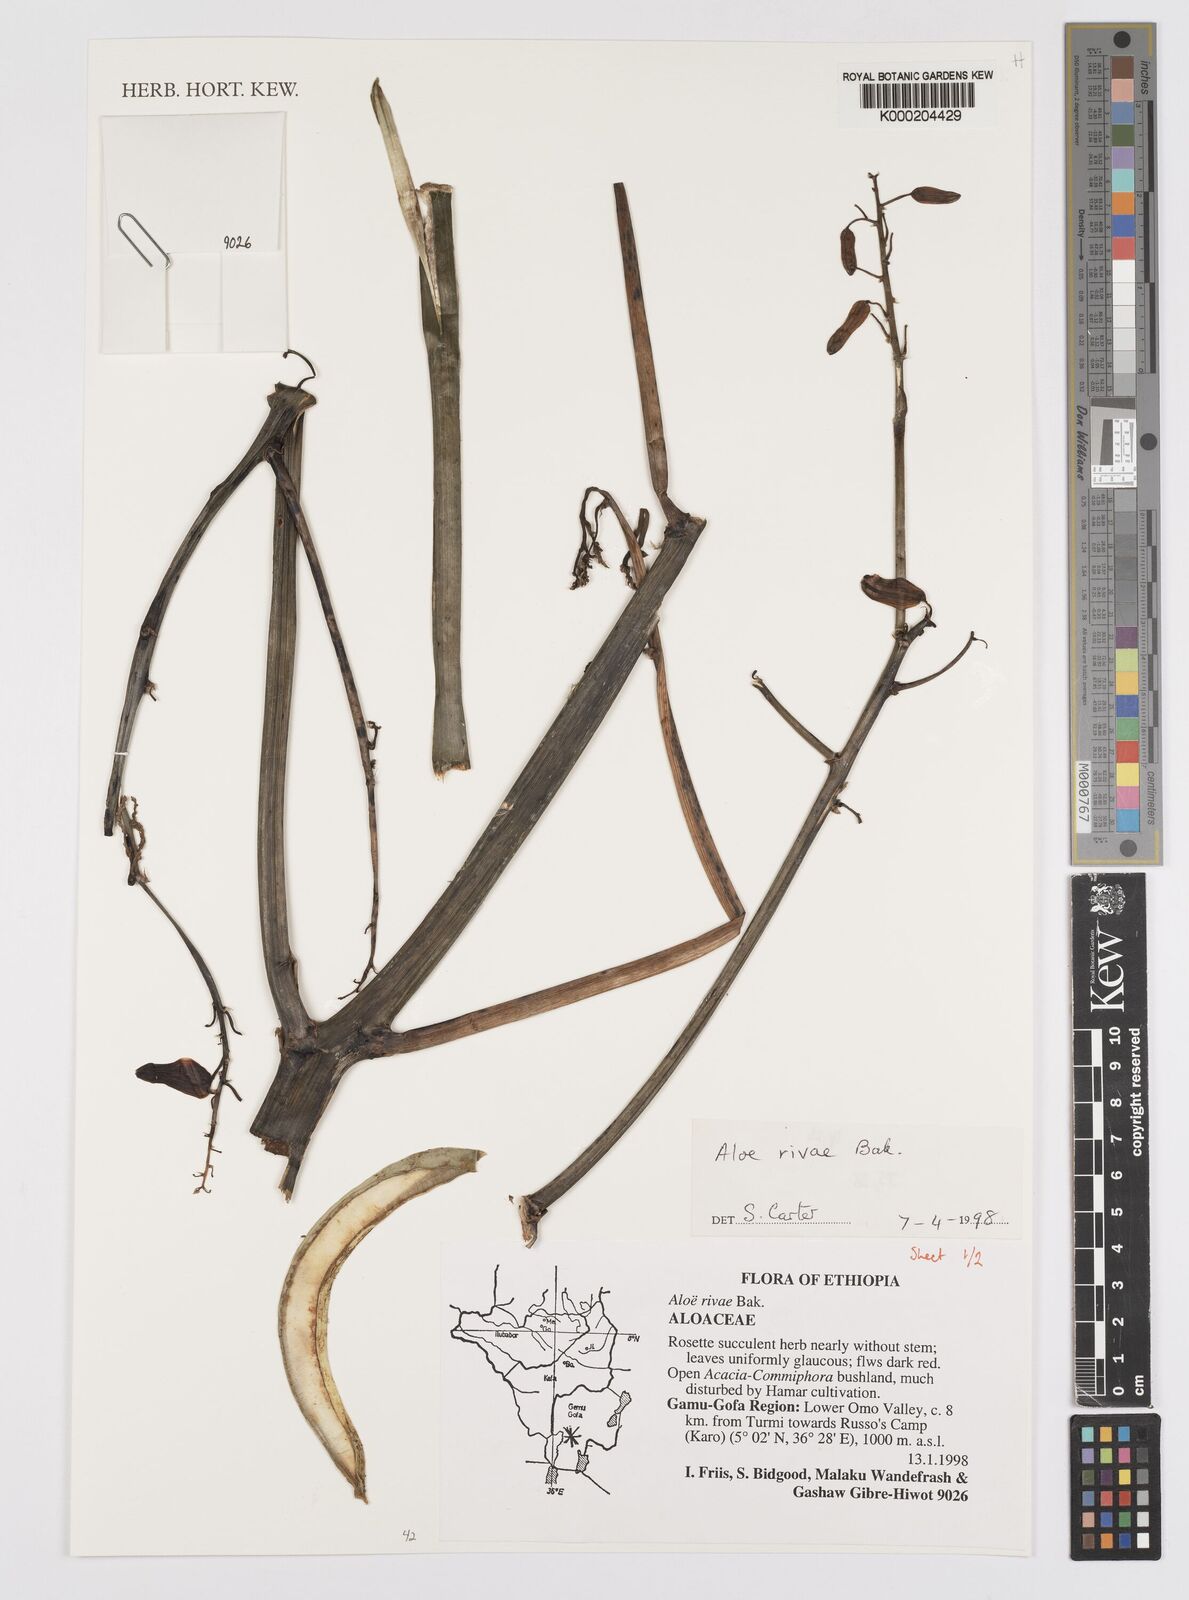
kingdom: Plantae
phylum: Tracheophyta
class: Liliopsida
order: Asparagales
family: Asphodelaceae
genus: Aloe
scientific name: Aloe rivae
